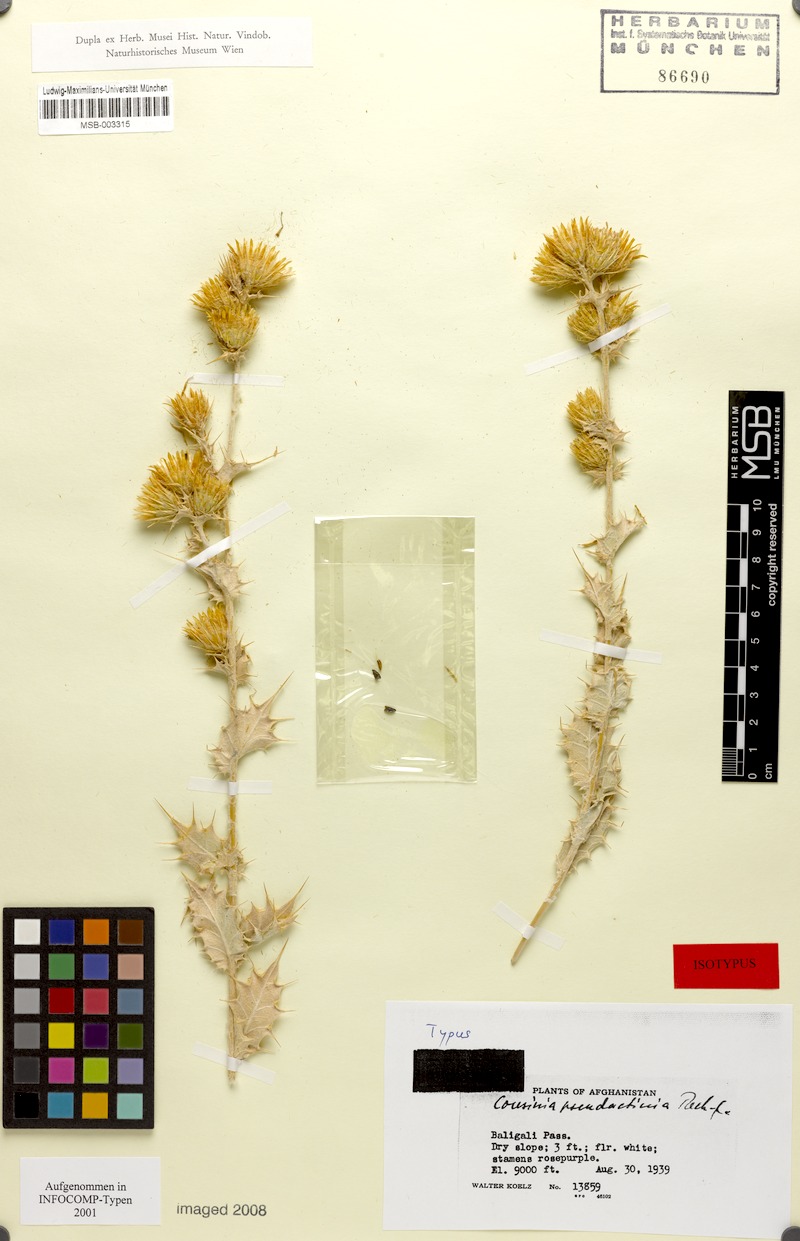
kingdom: Plantae
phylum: Tracheophyta
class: Magnoliopsida
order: Asterales
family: Asteraceae
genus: Cousinia
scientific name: Cousinia pseudactinia
